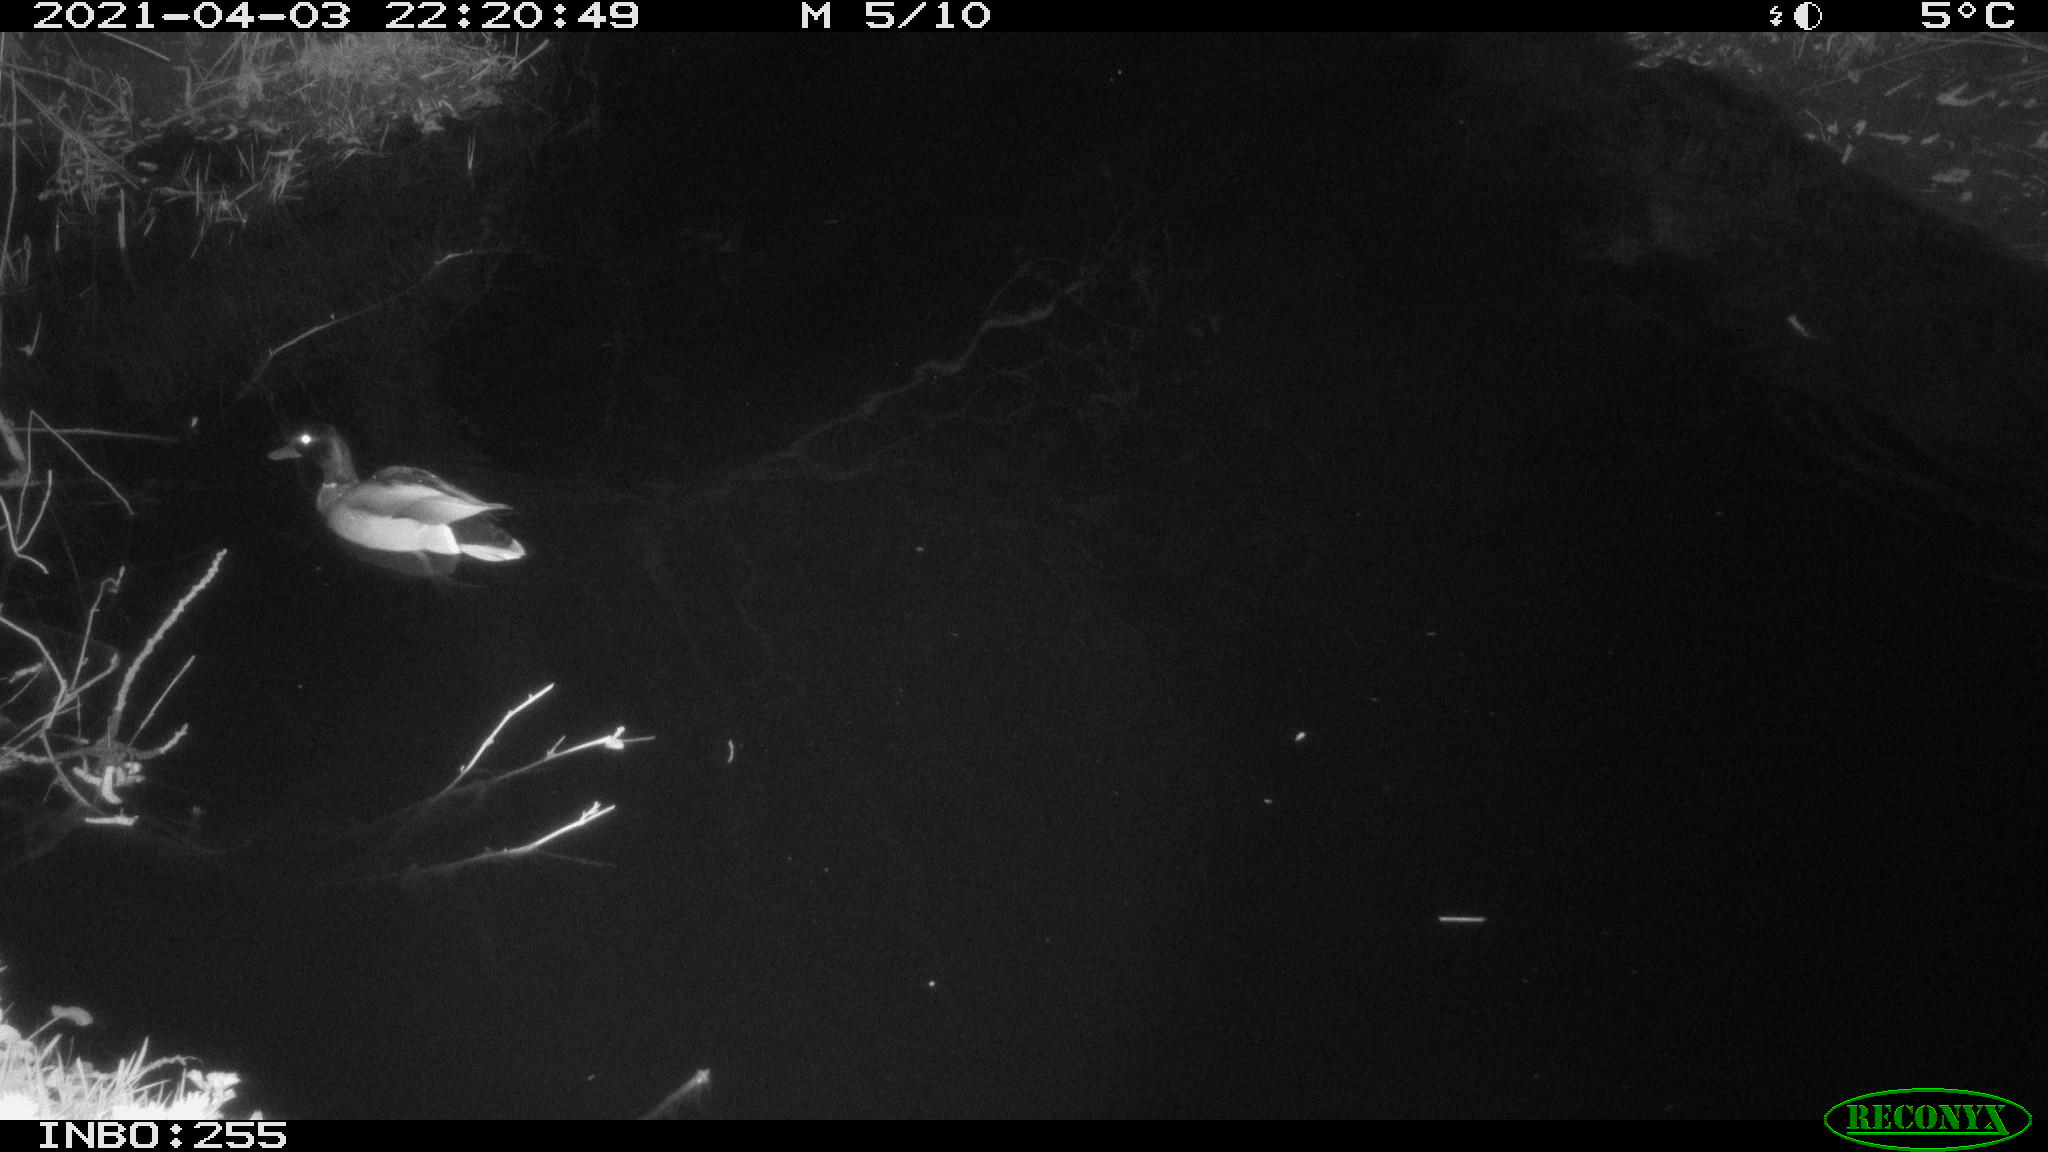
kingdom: Animalia
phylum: Chordata
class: Aves
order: Anseriformes
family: Anatidae
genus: Anas
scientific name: Anas platyrhynchos
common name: Mallard
